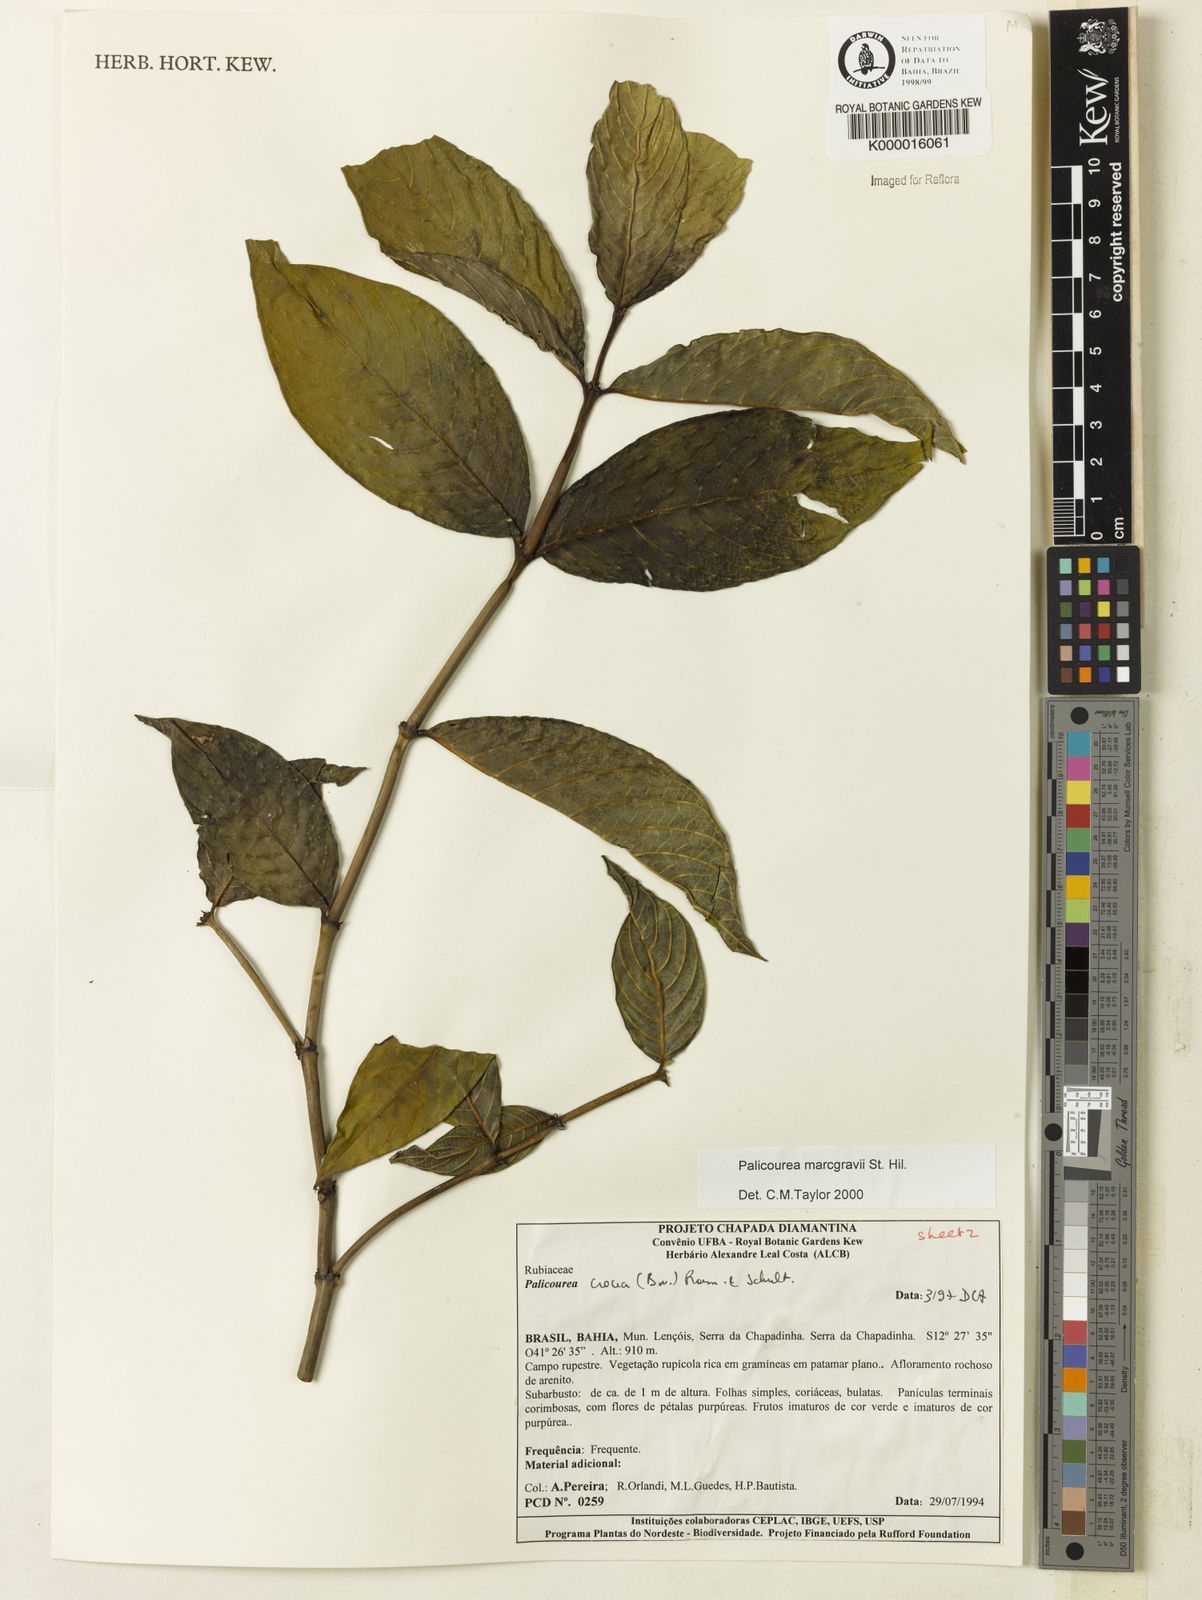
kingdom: Plantae
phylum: Tracheophyta
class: Magnoliopsida
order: Gentianales
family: Rubiaceae
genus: Palicourea
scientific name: Palicourea marcgravii
